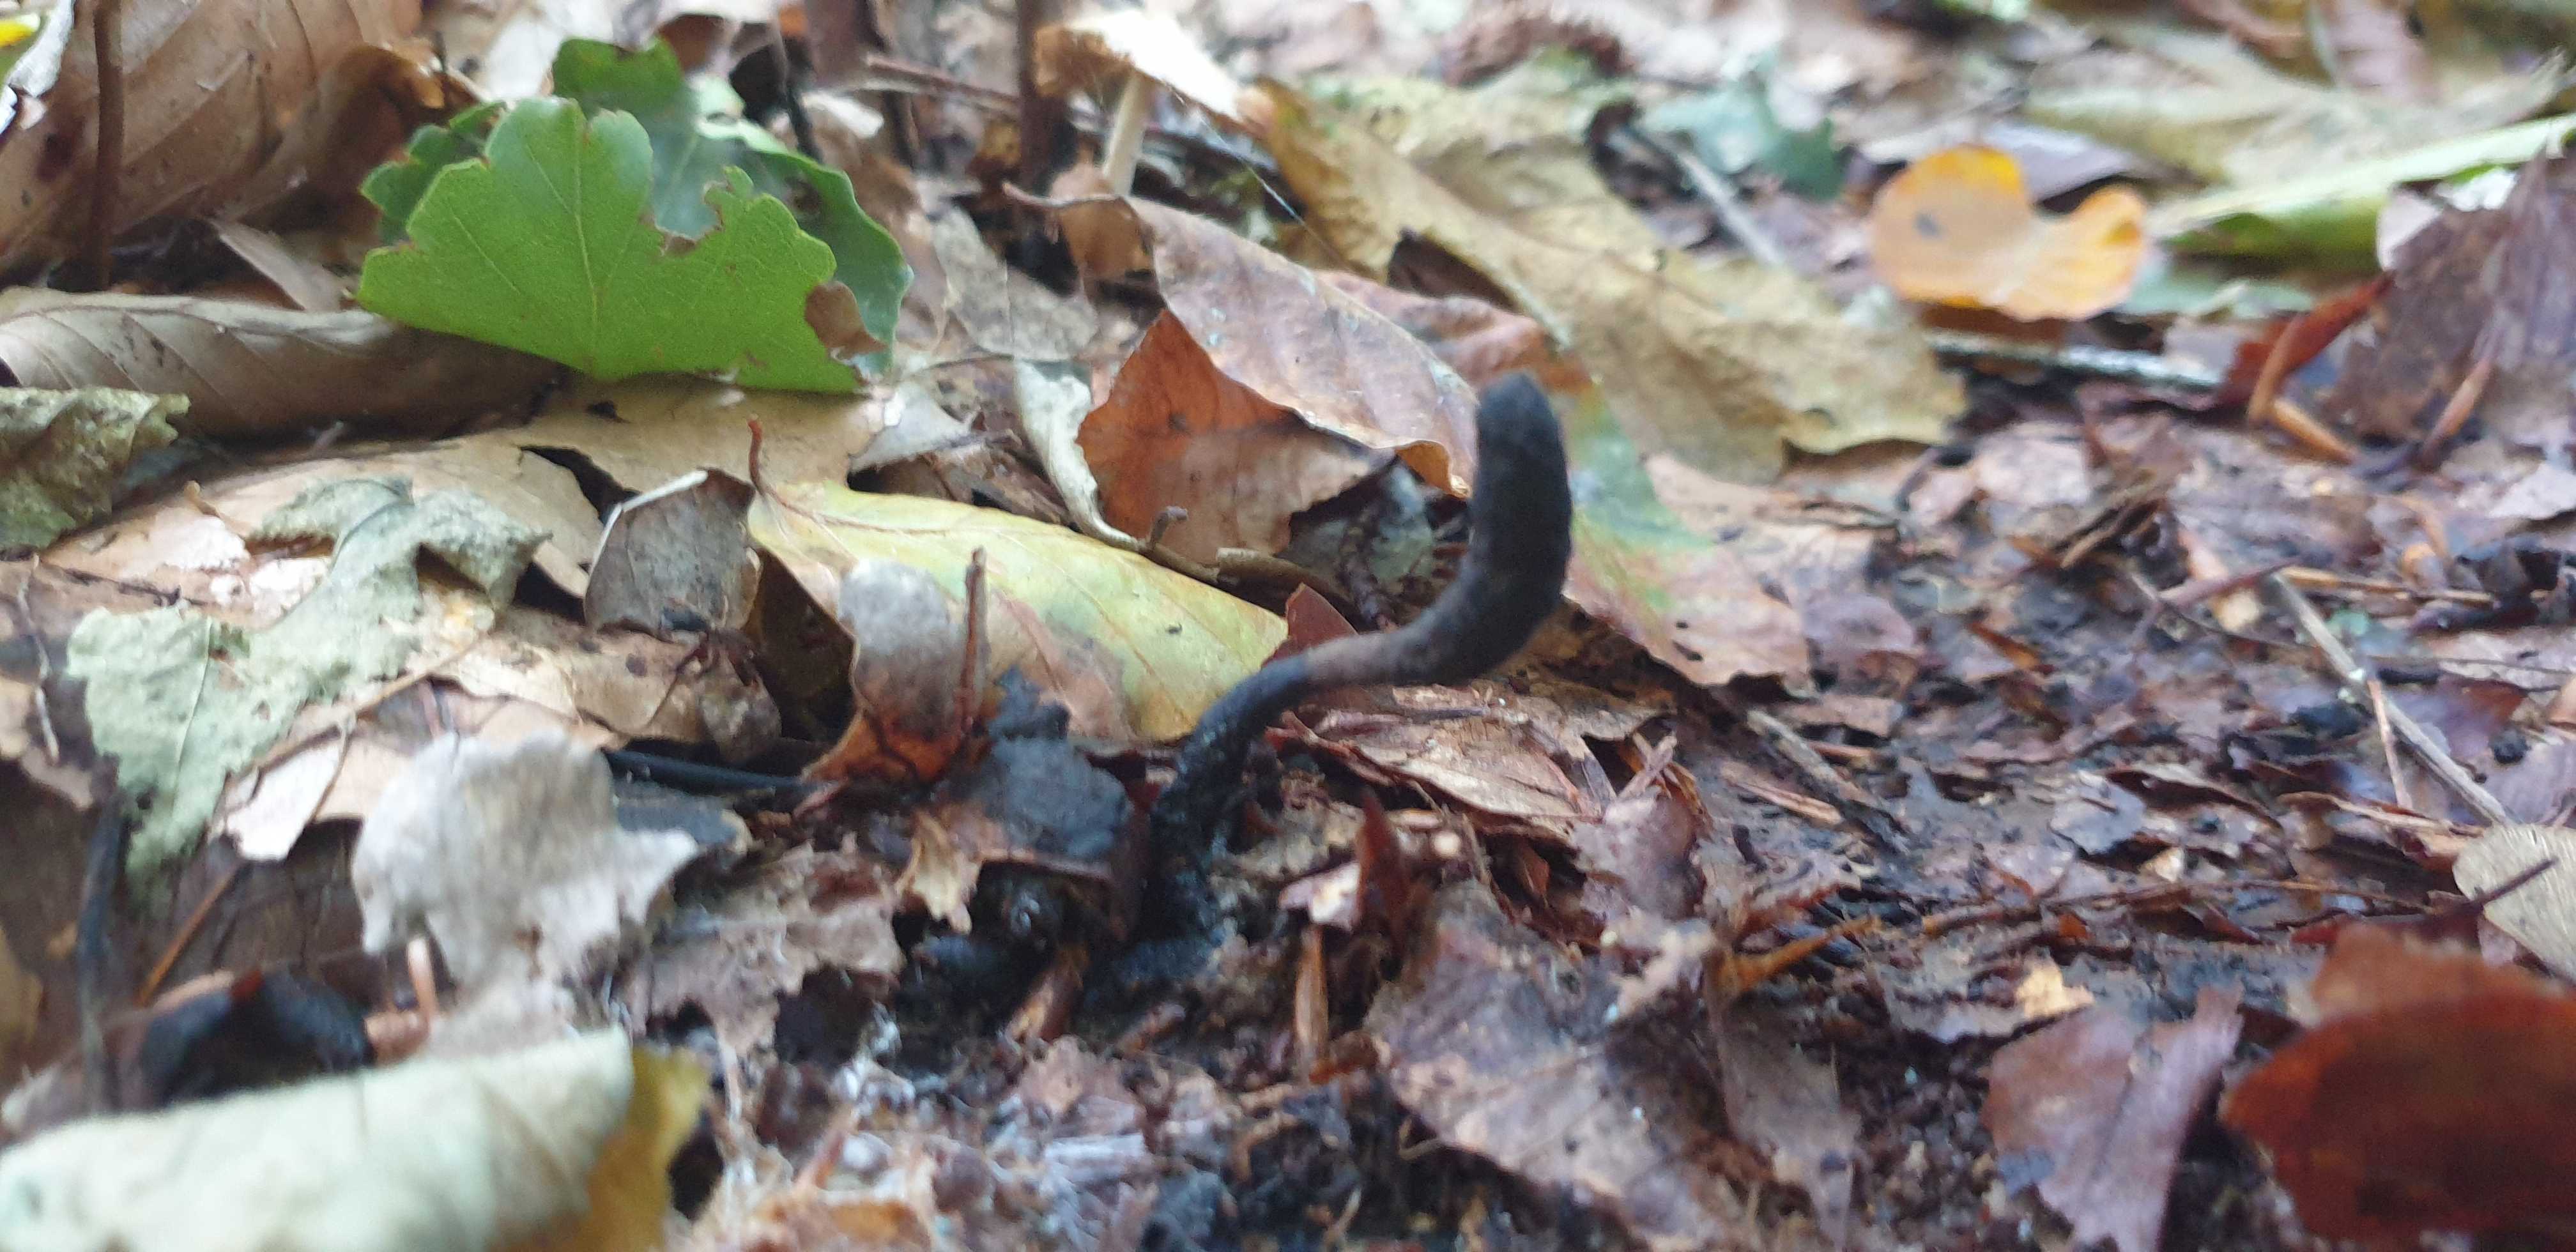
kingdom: Fungi
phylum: Ascomycota
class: Sordariomycetes
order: Xylariales
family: Xylariaceae
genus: Xylaria
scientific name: Xylaria longipes
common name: slank stødsvamp
